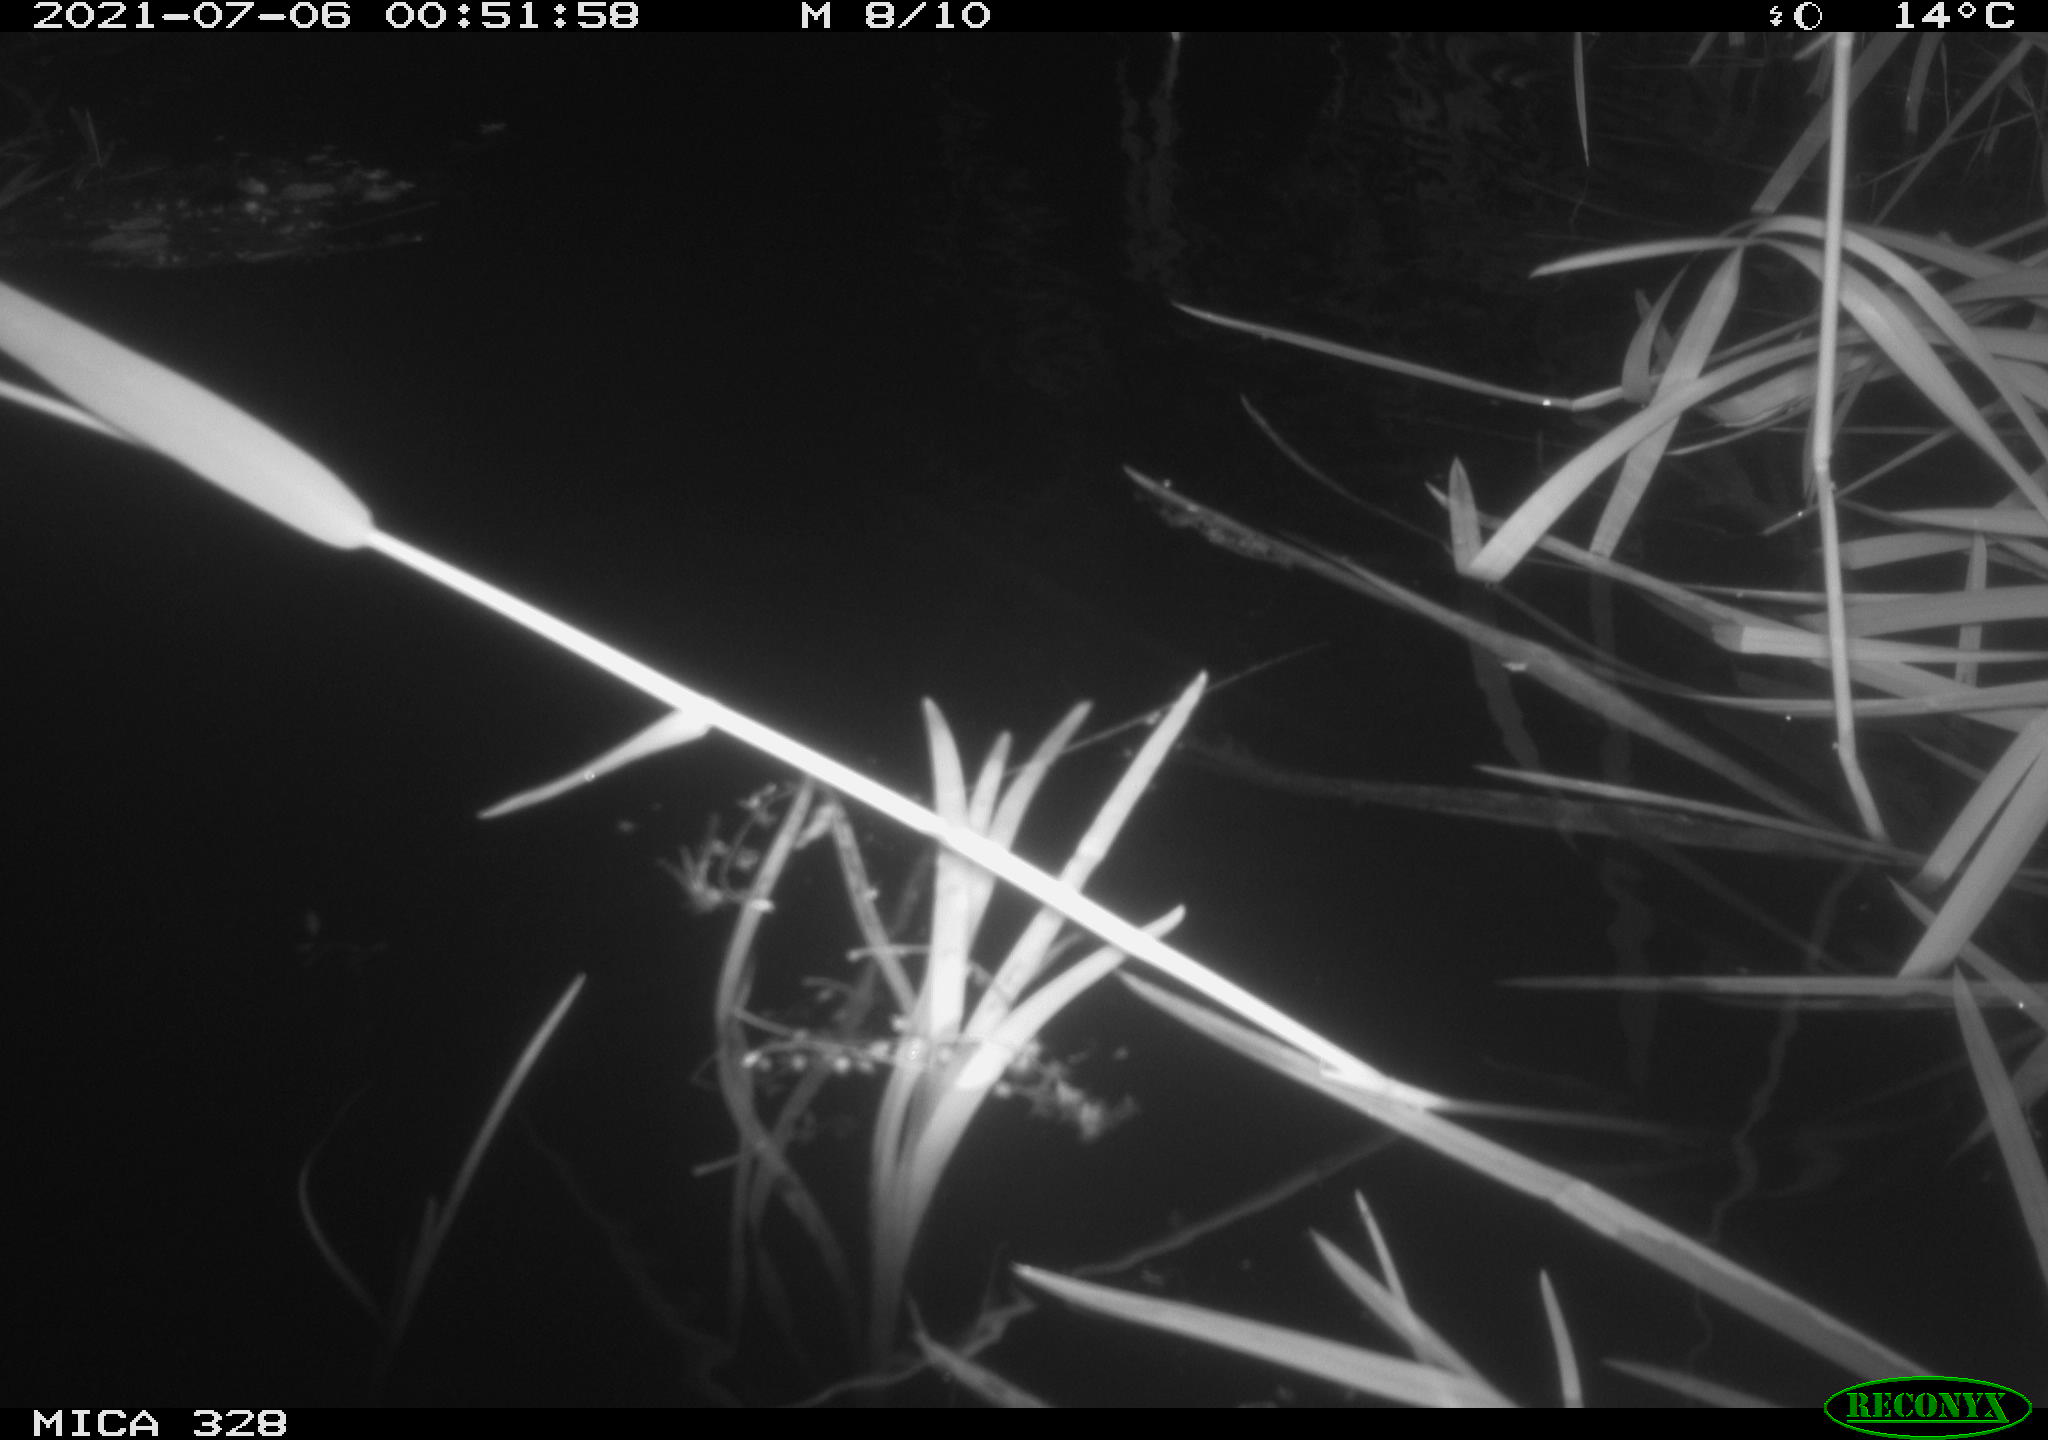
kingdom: Animalia
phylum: Chordata
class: Mammalia
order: Rodentia
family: Cricetidae
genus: Ondatra
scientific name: Ondatra zibethicus
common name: Muskrat
